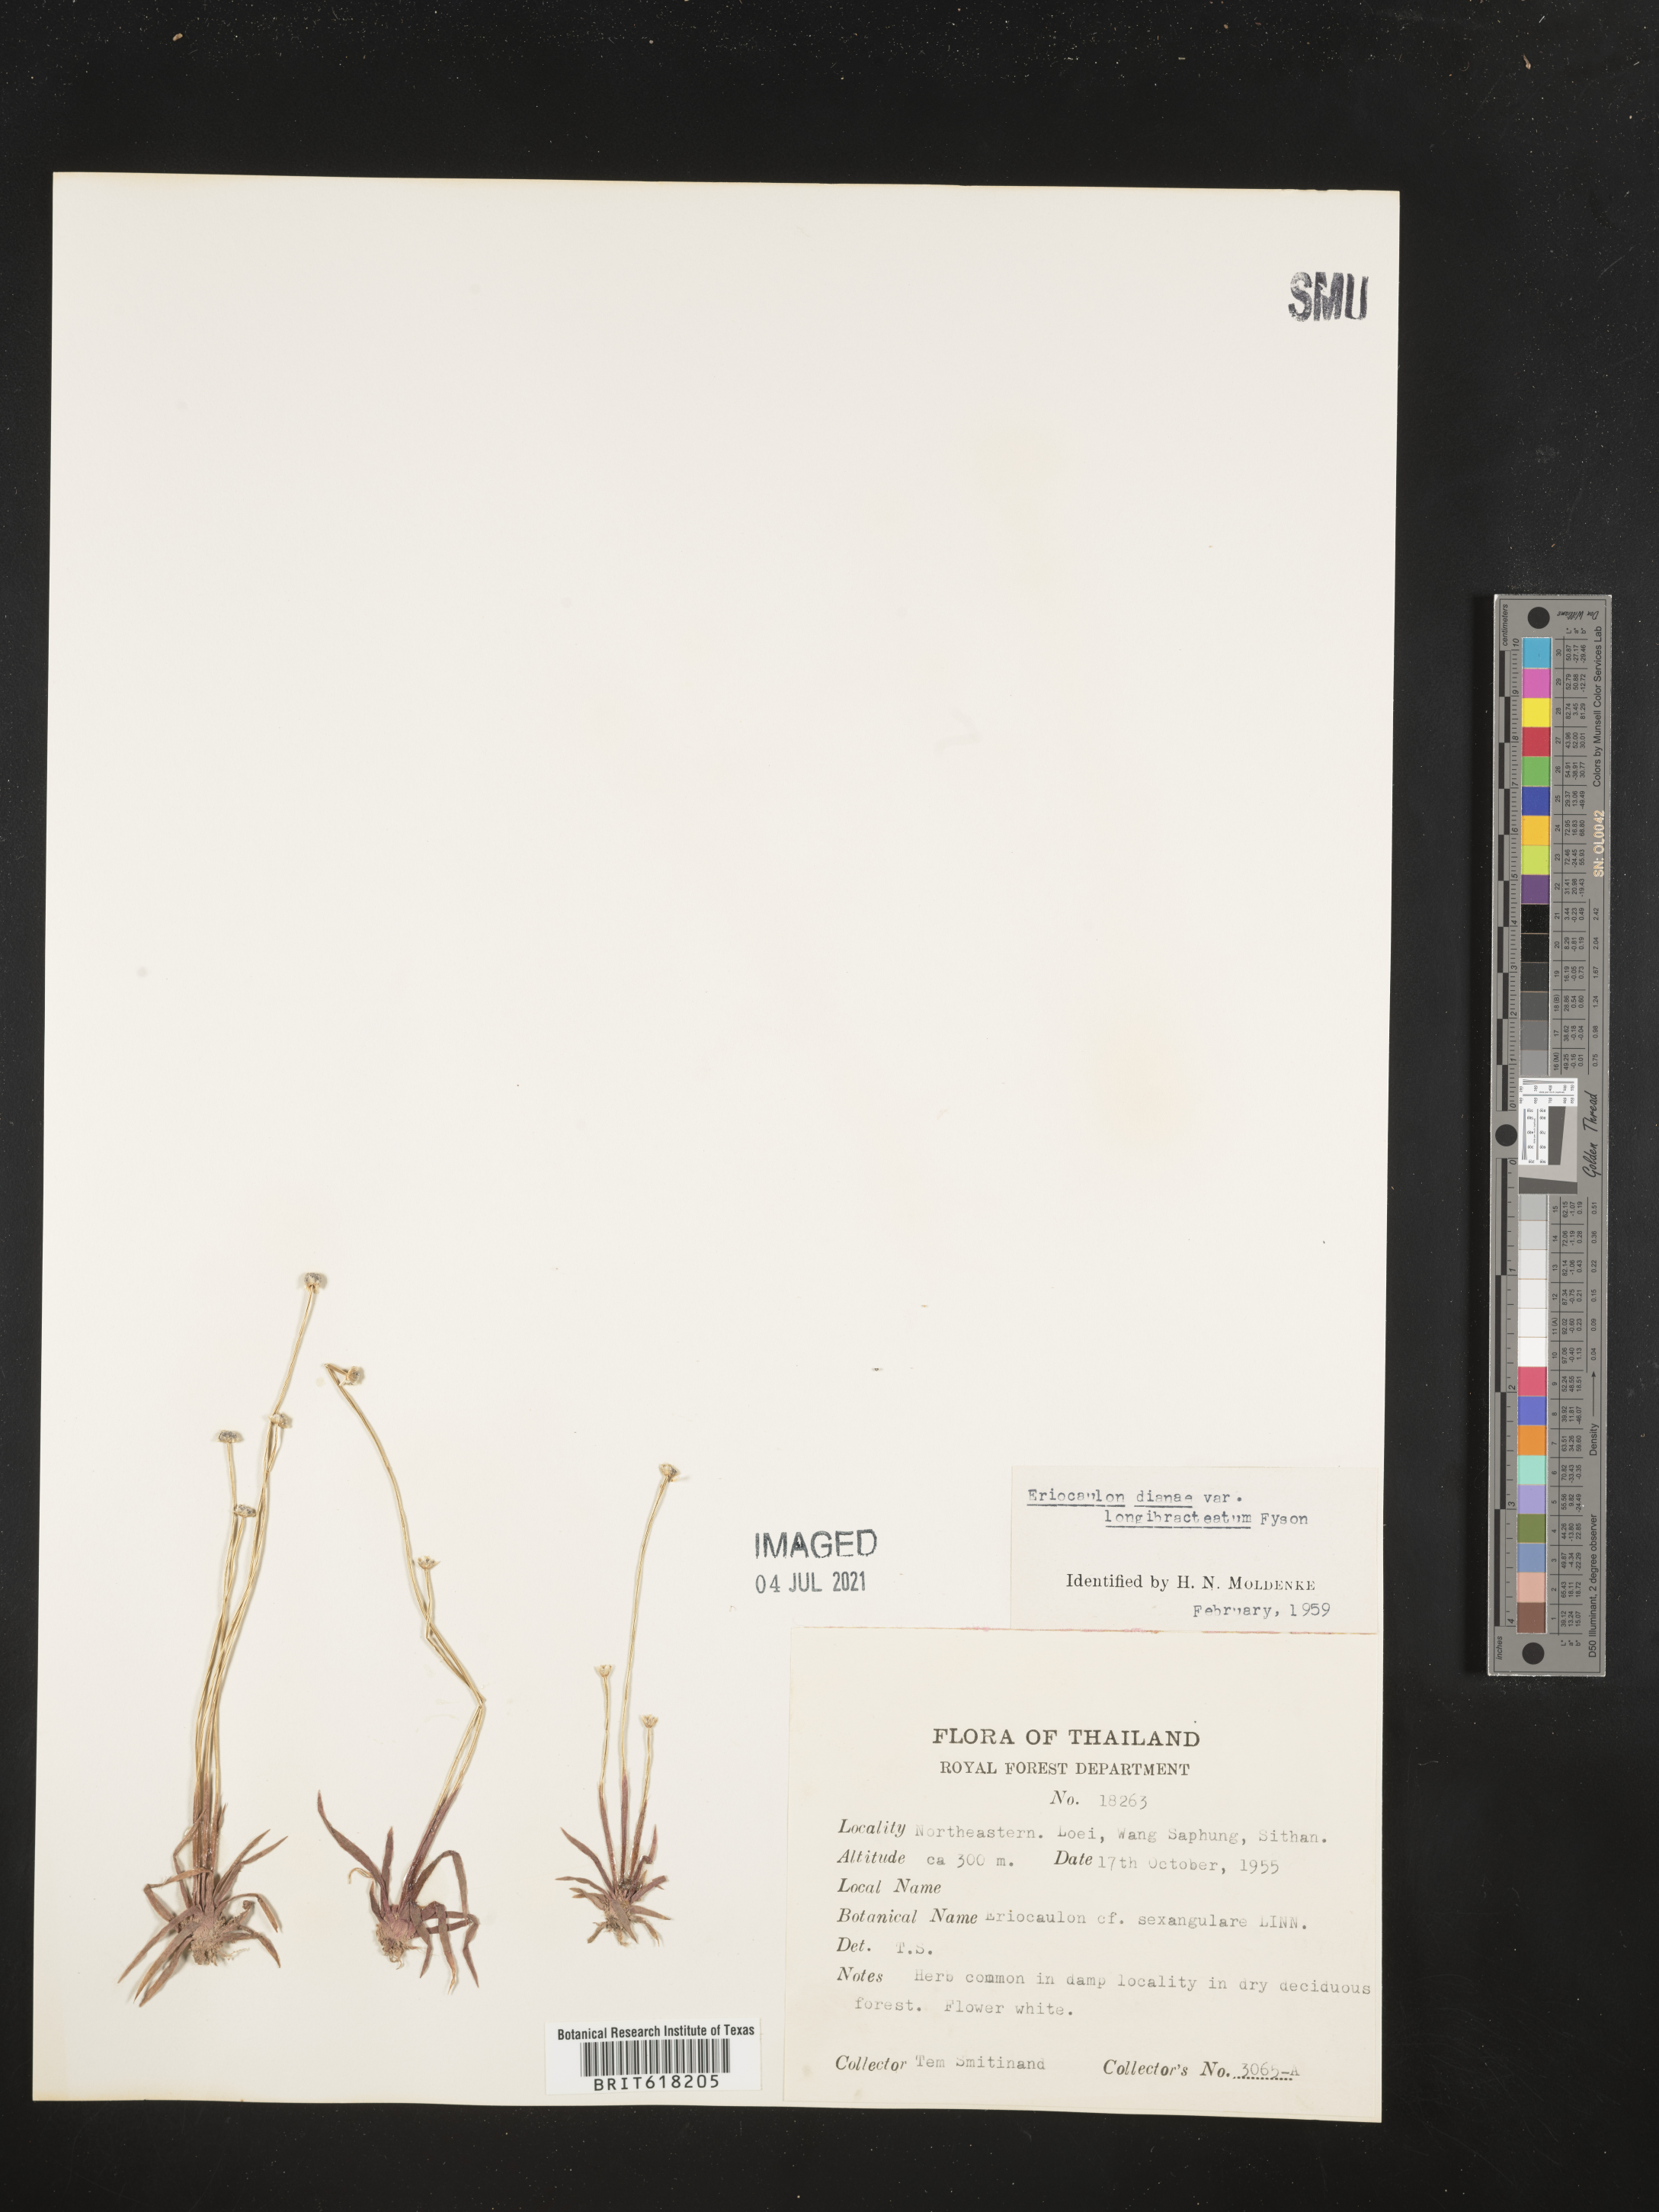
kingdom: Plantae
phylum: Tracheophyta
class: Liliopsida
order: Poales
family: Eriocaulaceae
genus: Eriocaulon
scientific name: Eriocaulon heterolepis
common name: Buttonhead pipewort
